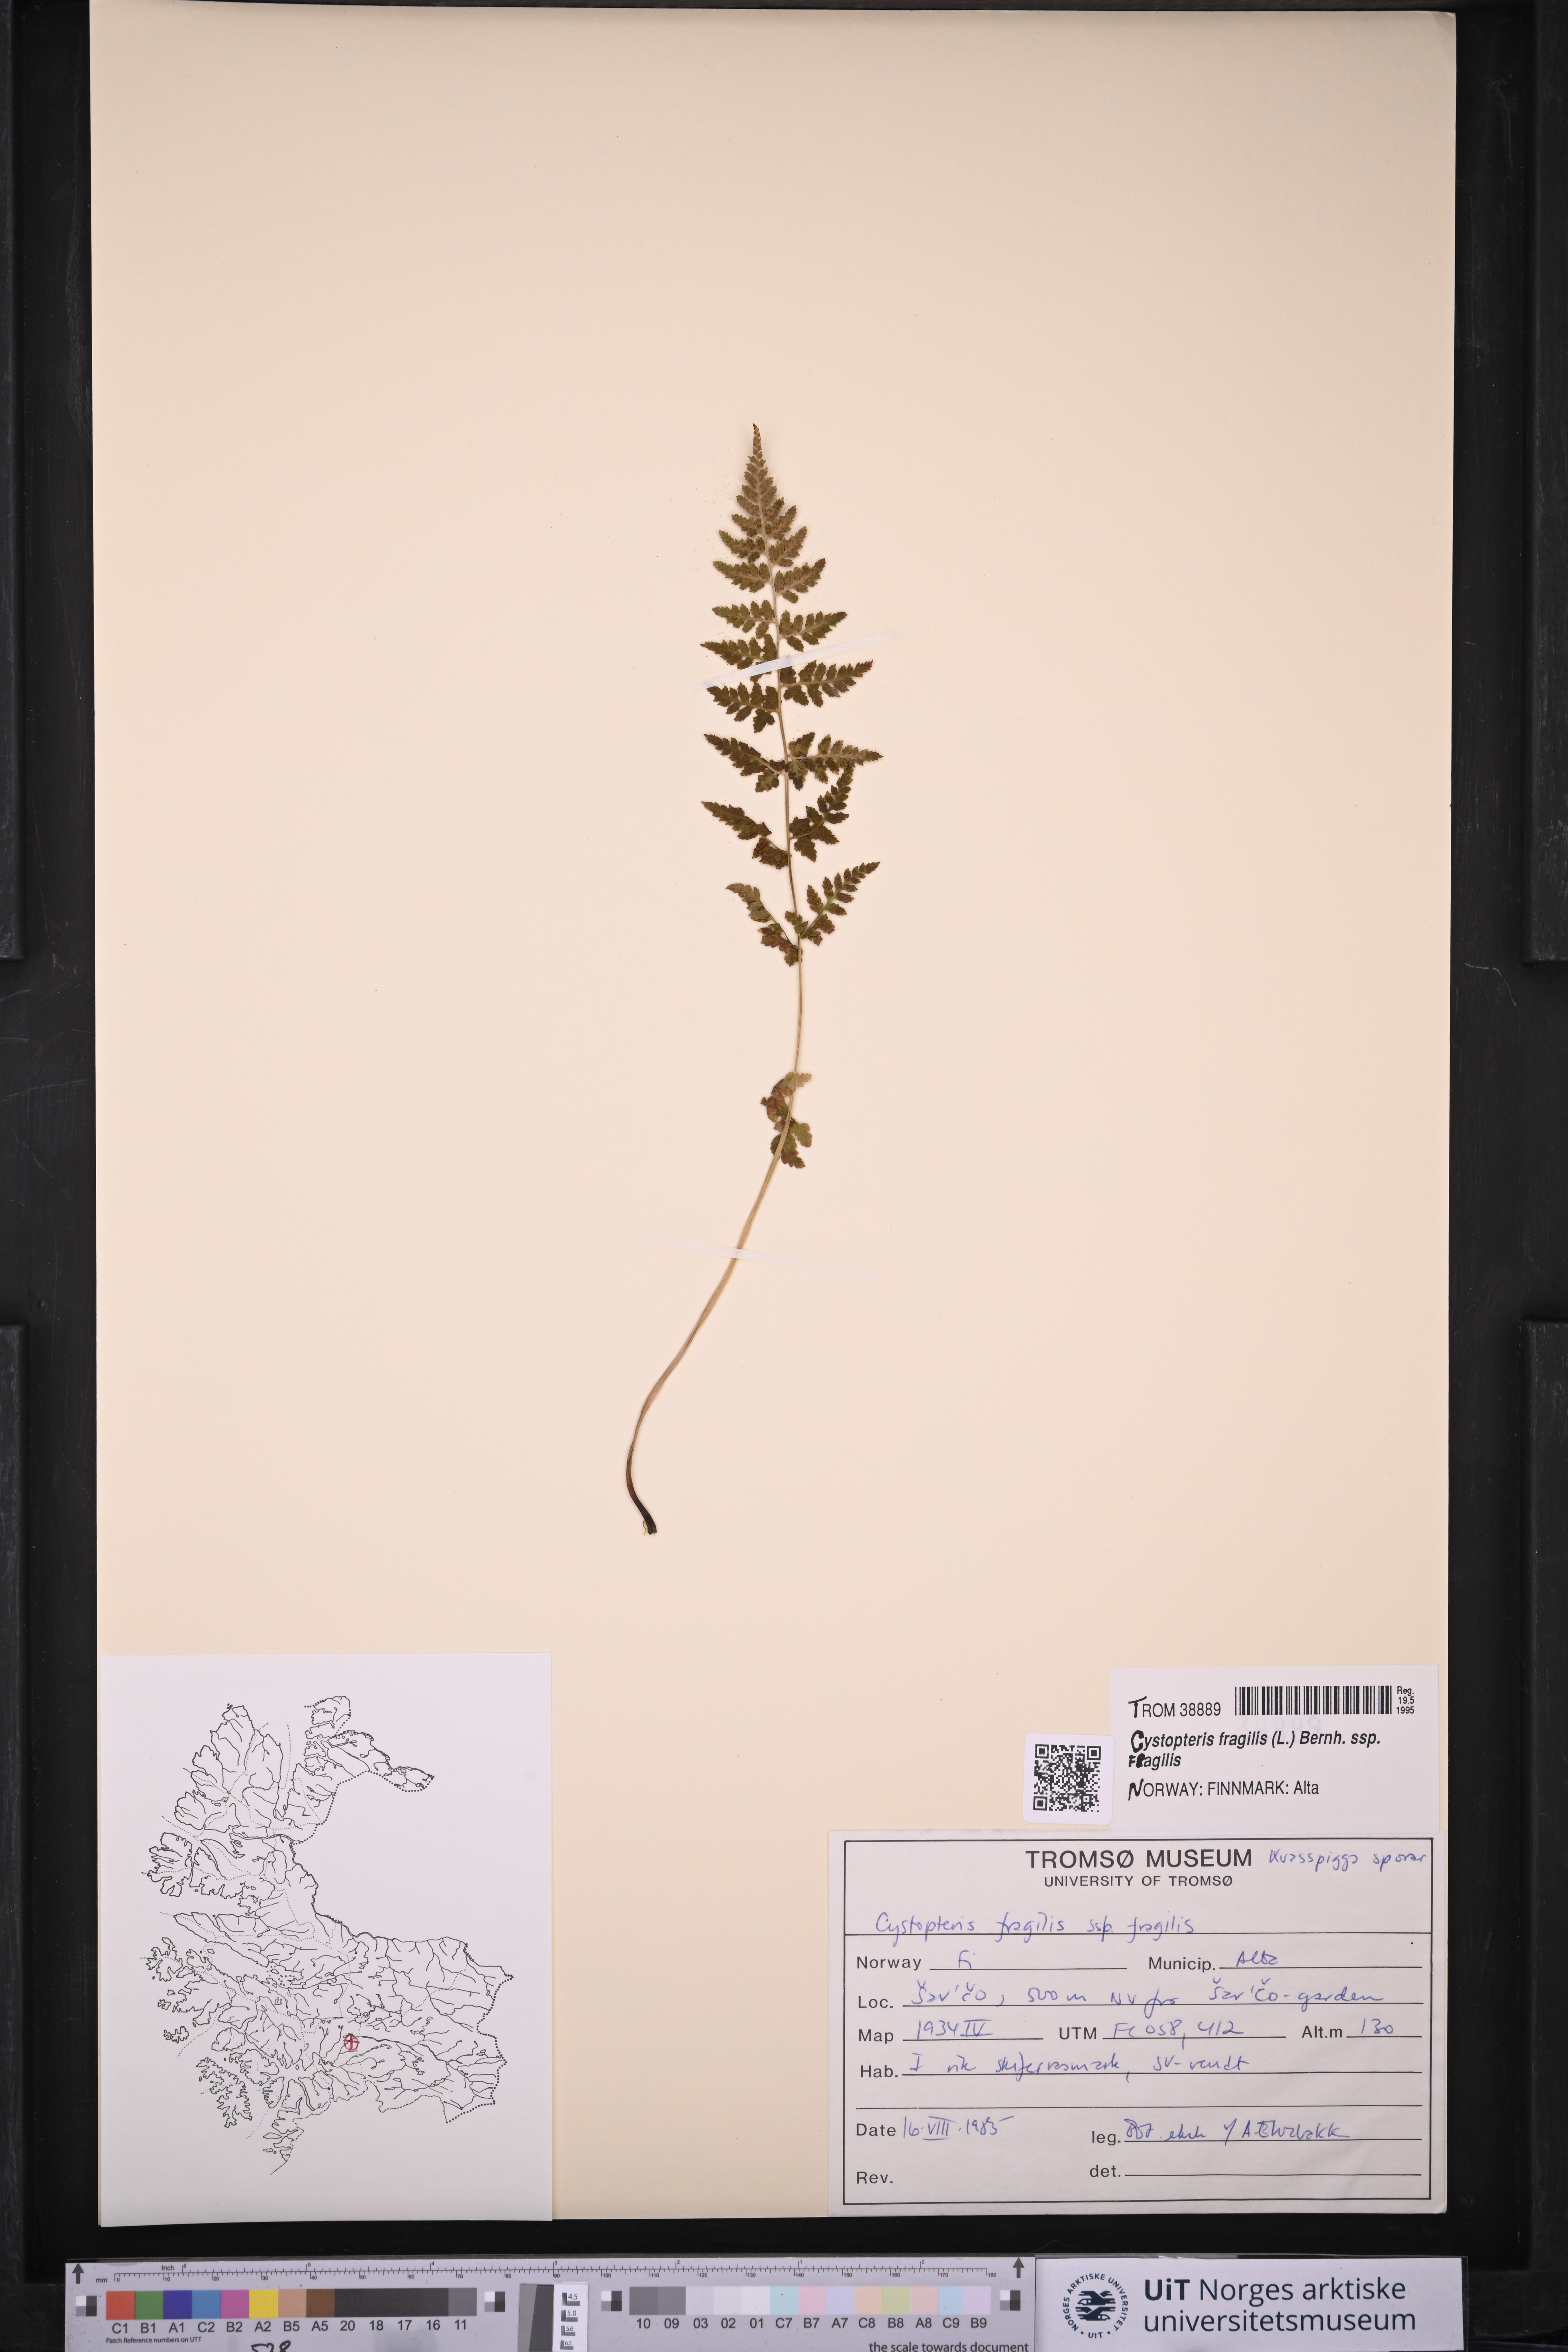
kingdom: Plantae
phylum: Tracheophyta
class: Polypodiopsida
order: Polypodiales
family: Cystopteridaceae
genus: Cystopteris
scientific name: Cystopteris fragilis
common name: Brittle bladder fern
